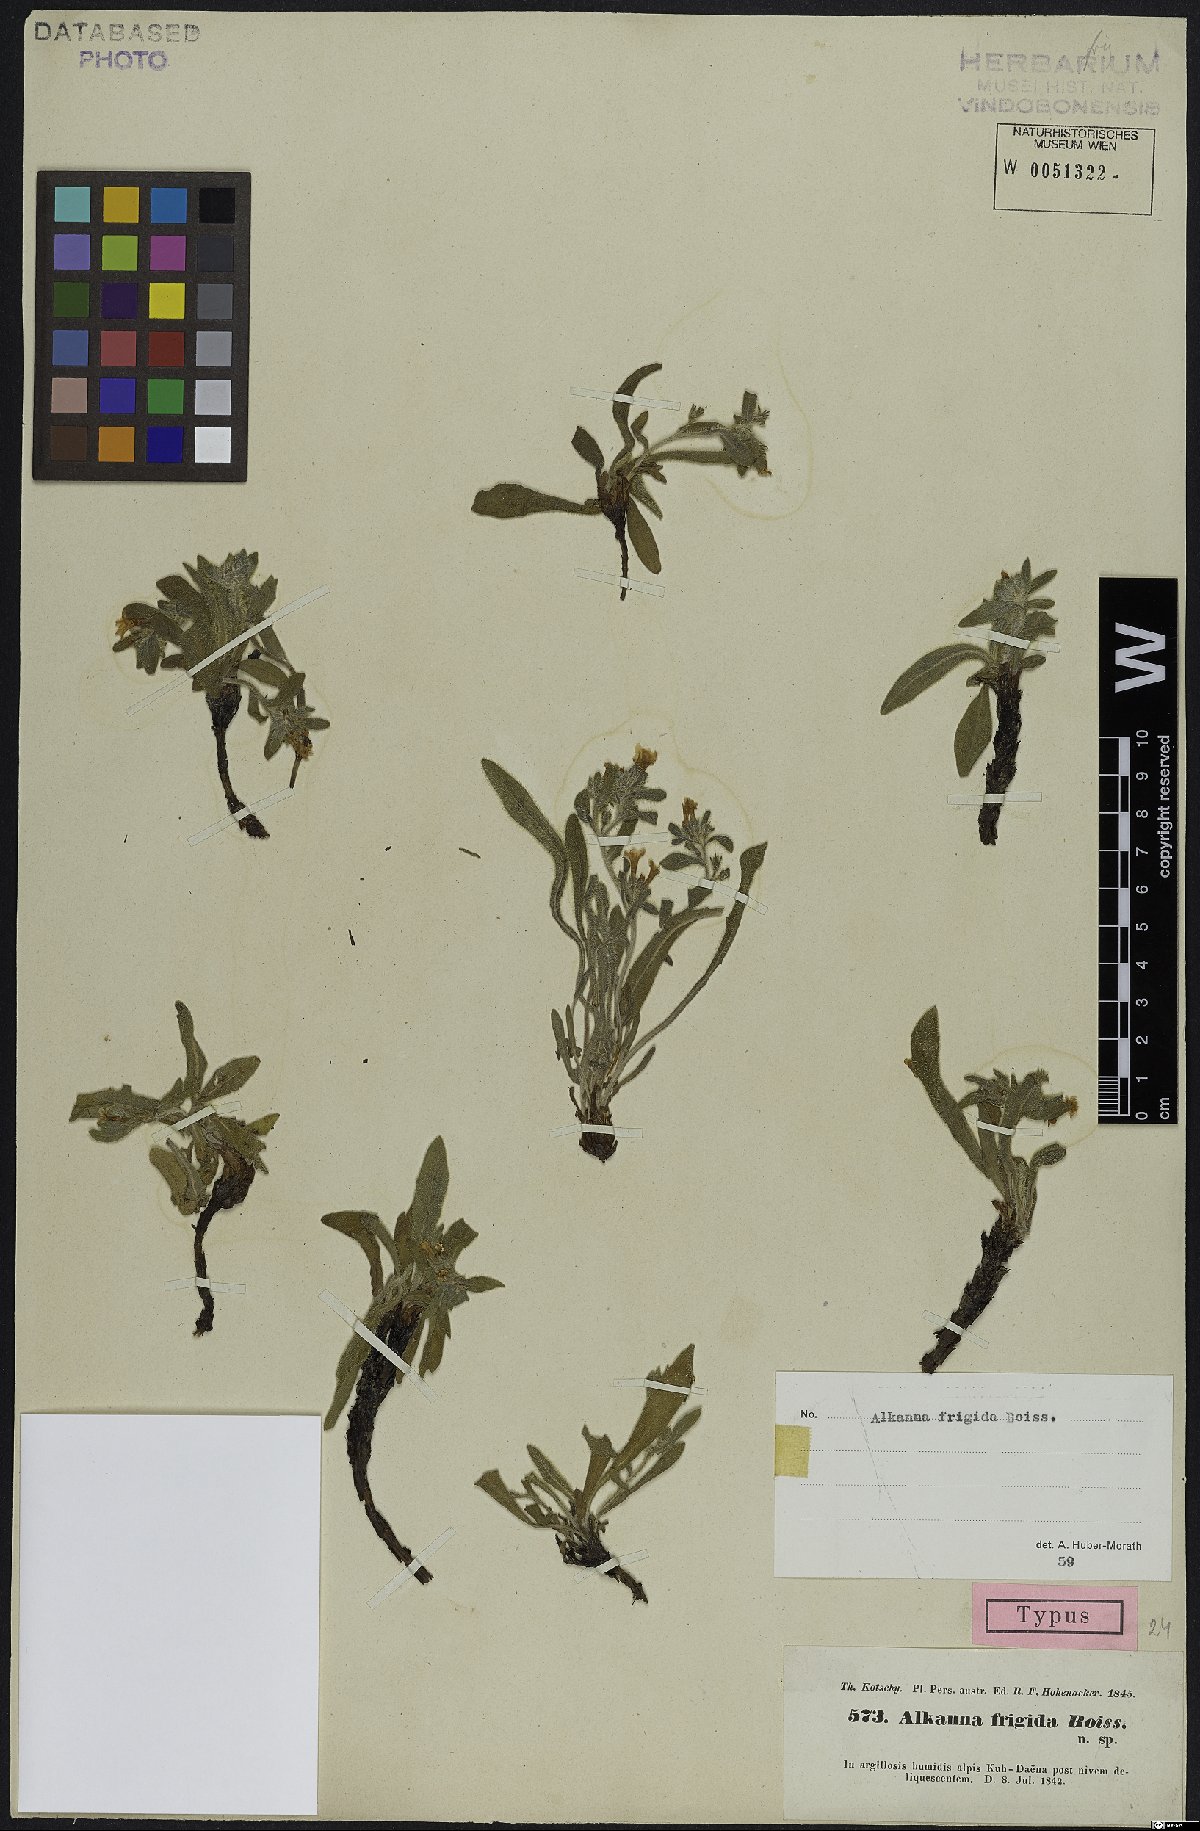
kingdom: Plantae
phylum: Tracheophyta
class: Magnoliopsida
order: Boraginales
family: Boraginaceae
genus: Alkanna
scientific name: Alkanna frigida
